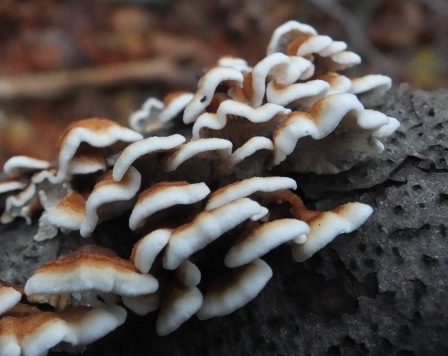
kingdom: Fungi
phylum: Basidiomycota
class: Agaricomycetes
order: Amylocorticiales
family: Amylocorticiaceae
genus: Plicaturopsis
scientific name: Plicaturopsis crispa
